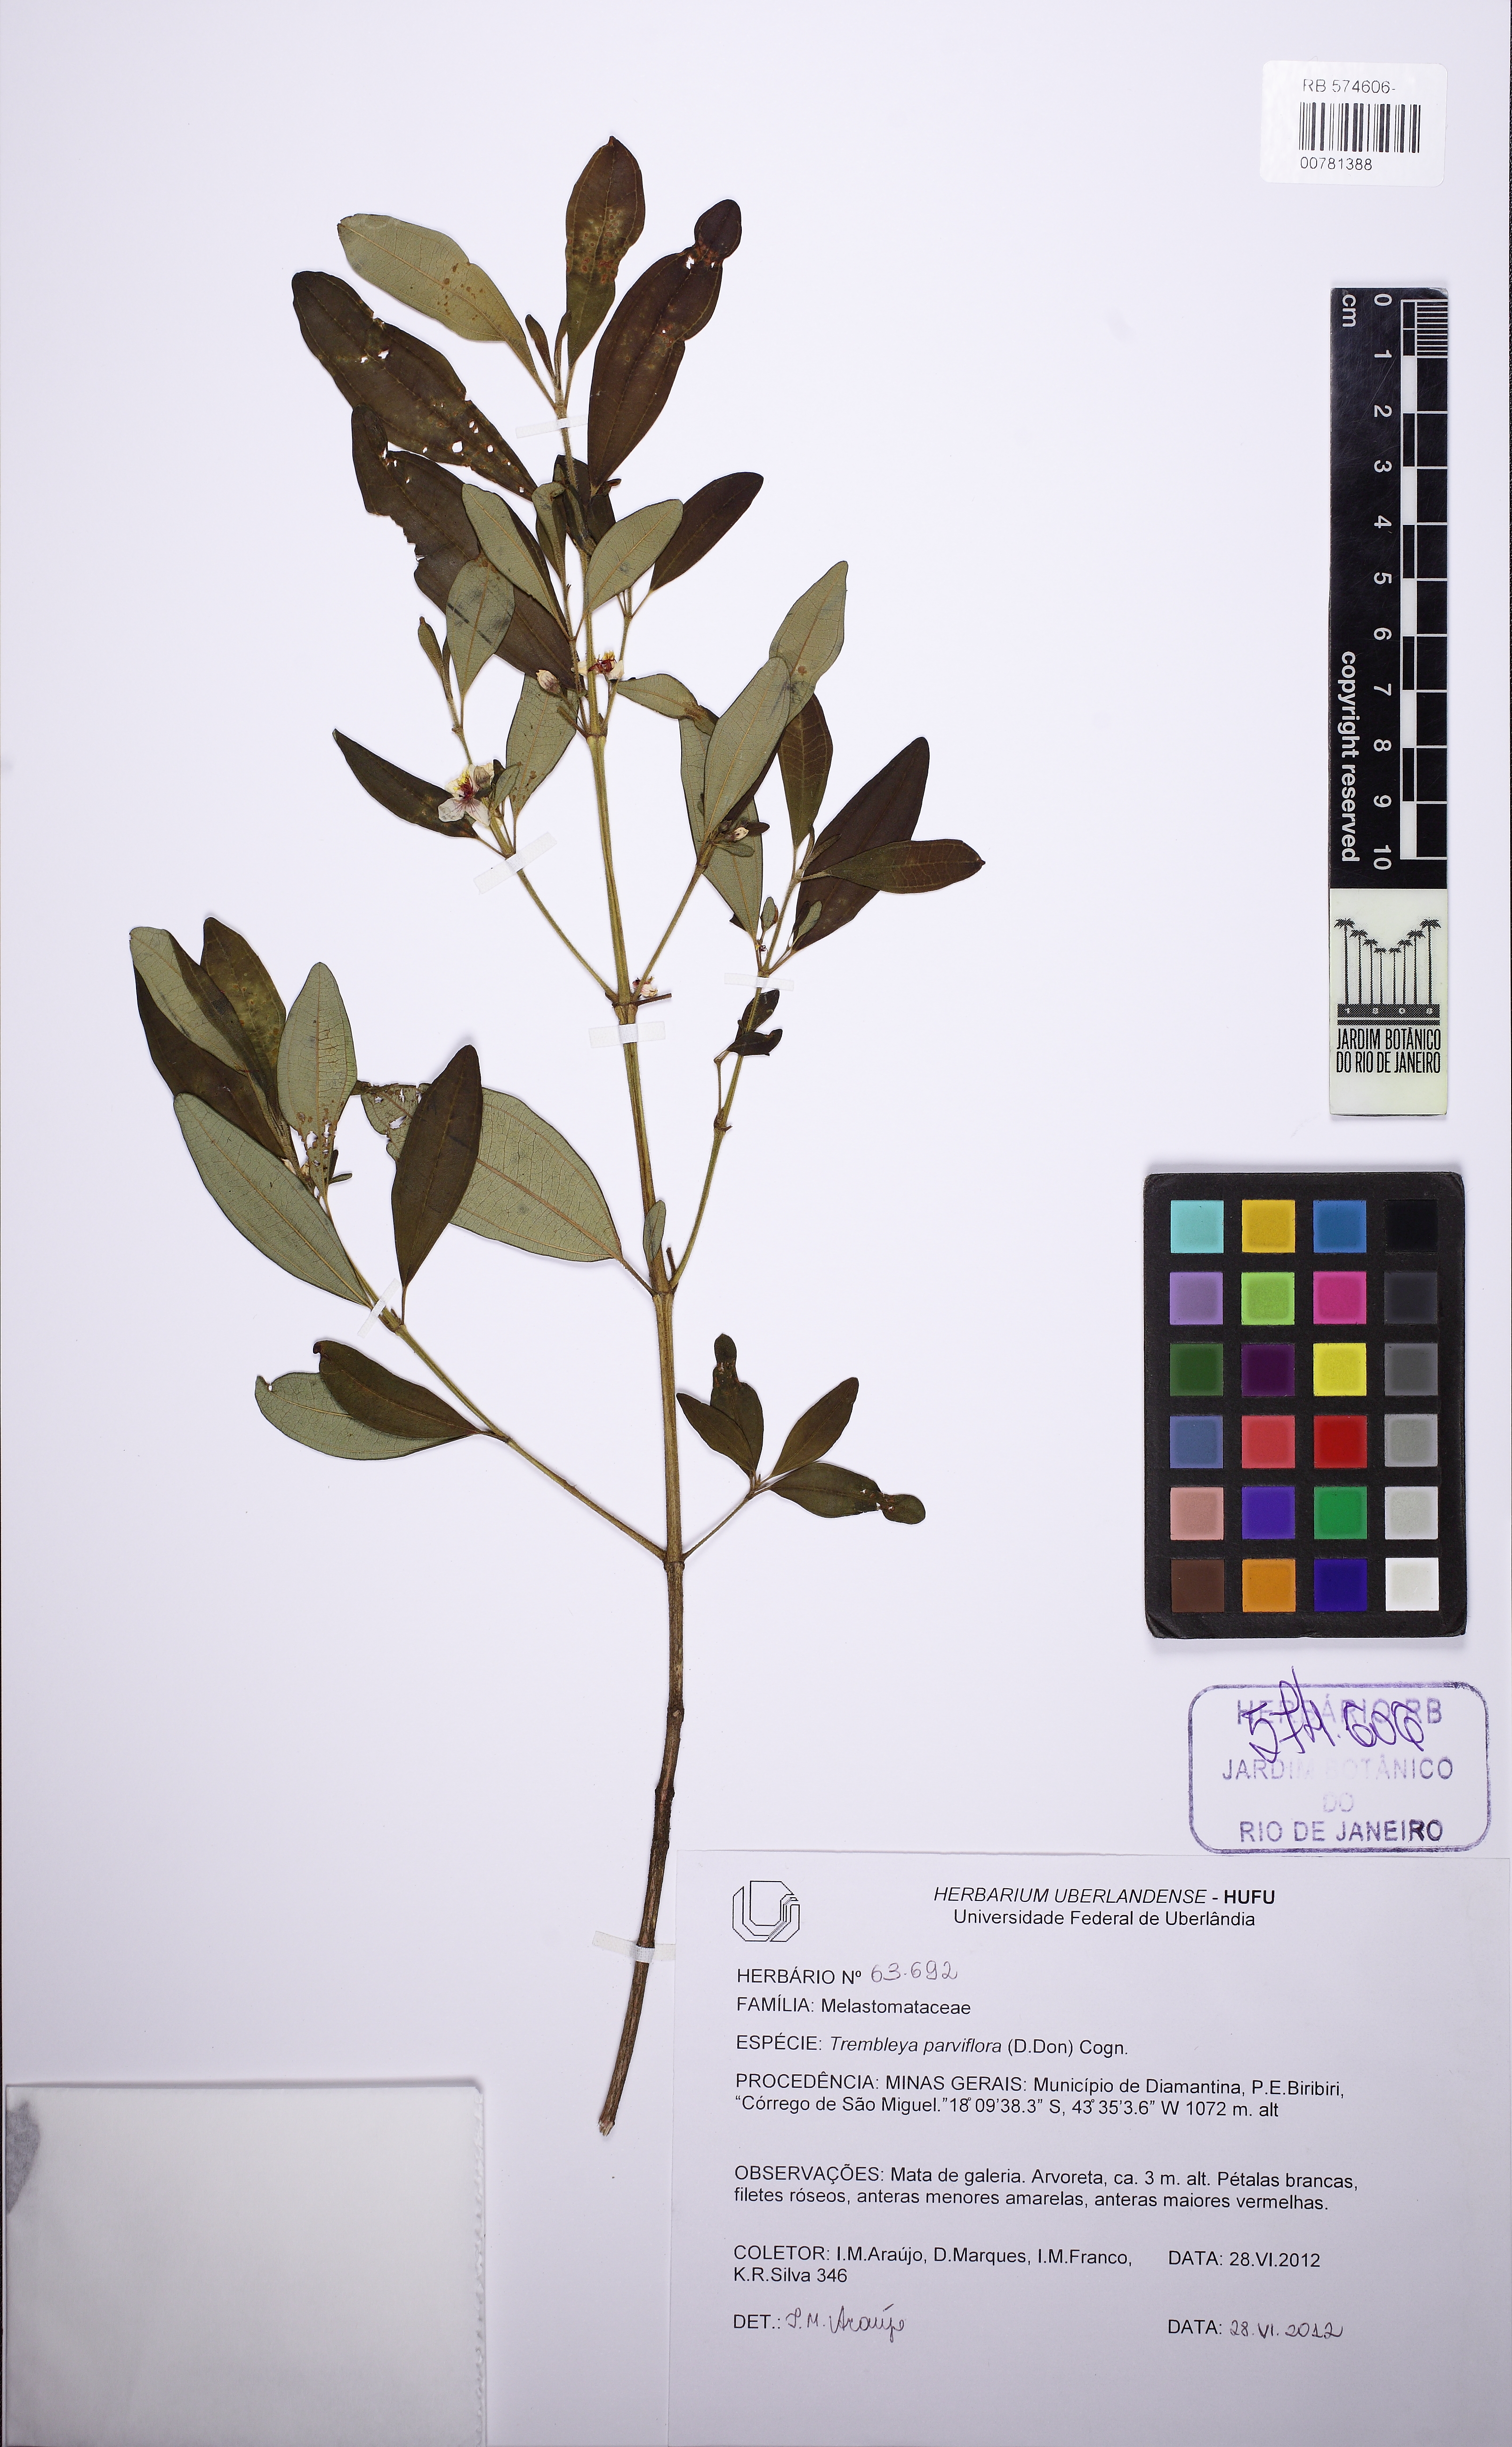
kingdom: Plantae
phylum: Tracheophyta
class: Magnoliopsida
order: Myrtales
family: Melastomataceae
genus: Microlicia
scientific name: Microlicia parviflora
